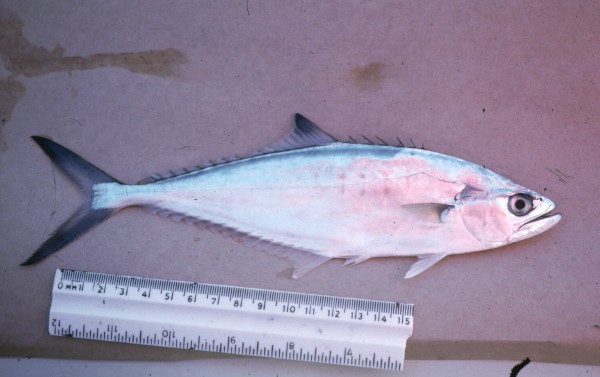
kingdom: Animalia
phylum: Chordata
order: Perciformes
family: Carangidae
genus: Scomberoides
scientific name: Scomberoides
